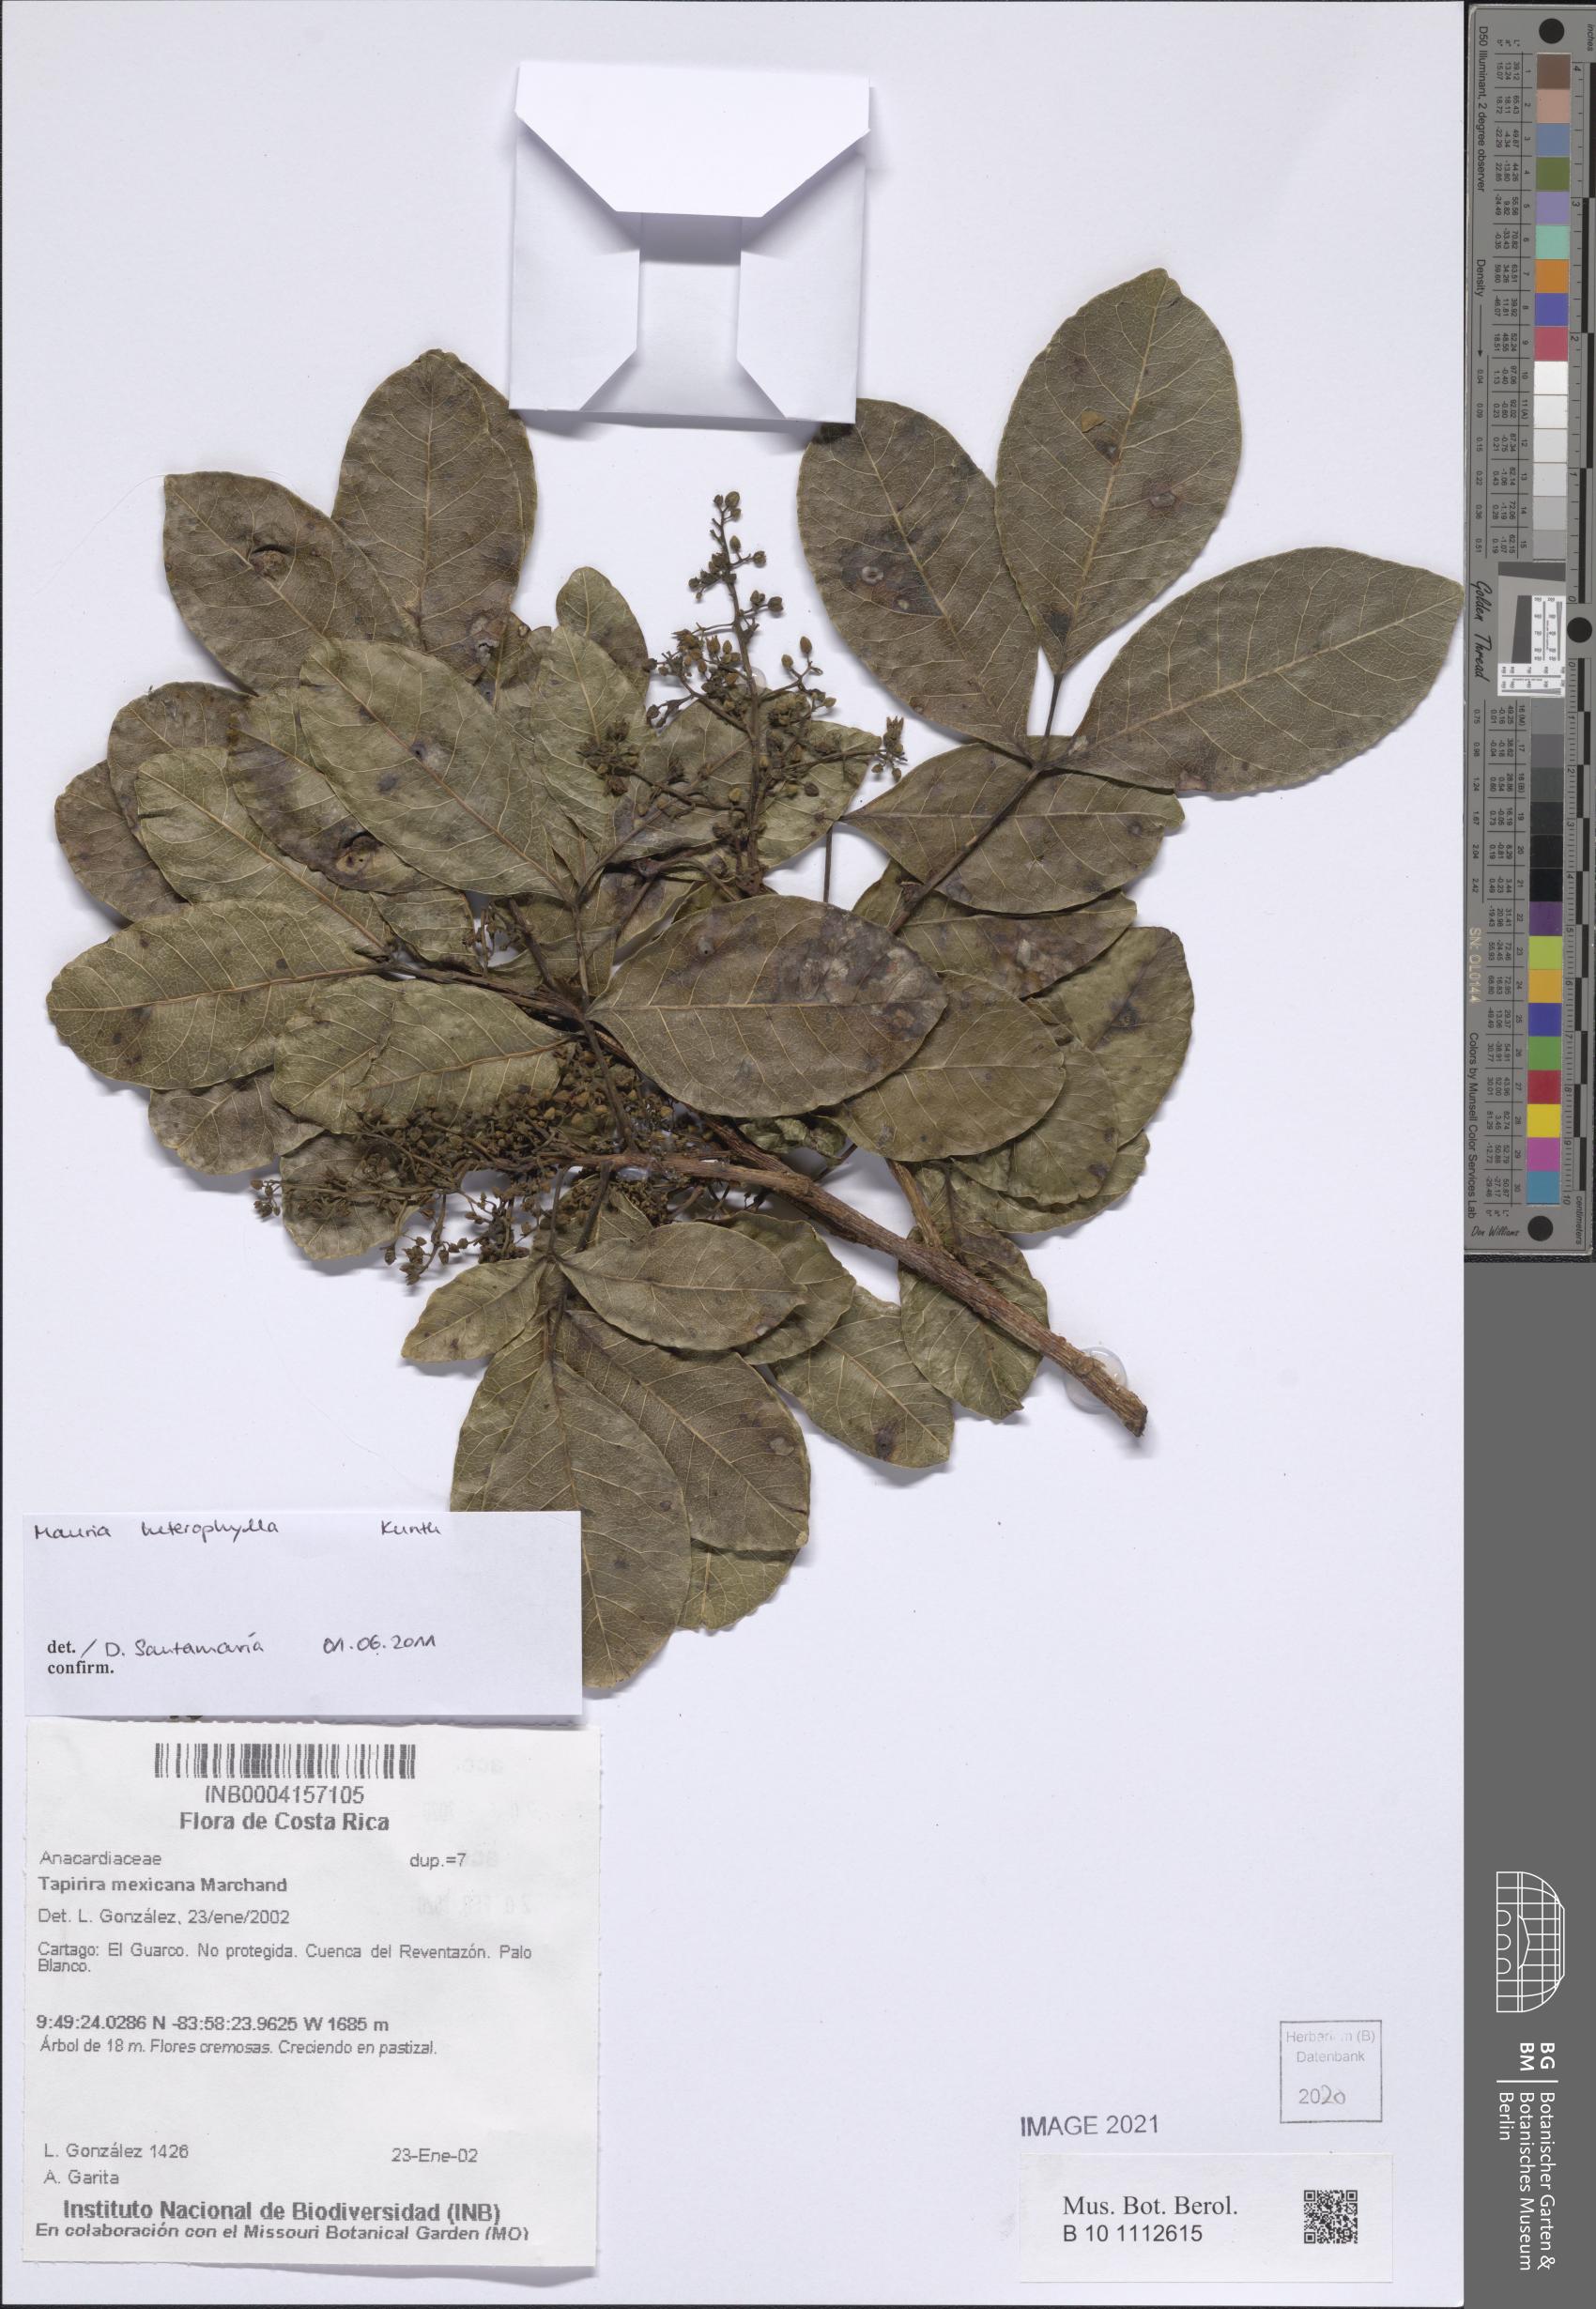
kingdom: Plantae
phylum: Tracheophyta
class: Magnoliopsida
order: Sapindales
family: Anacardiaceae
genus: Mauria
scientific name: Mauria heterophylla
